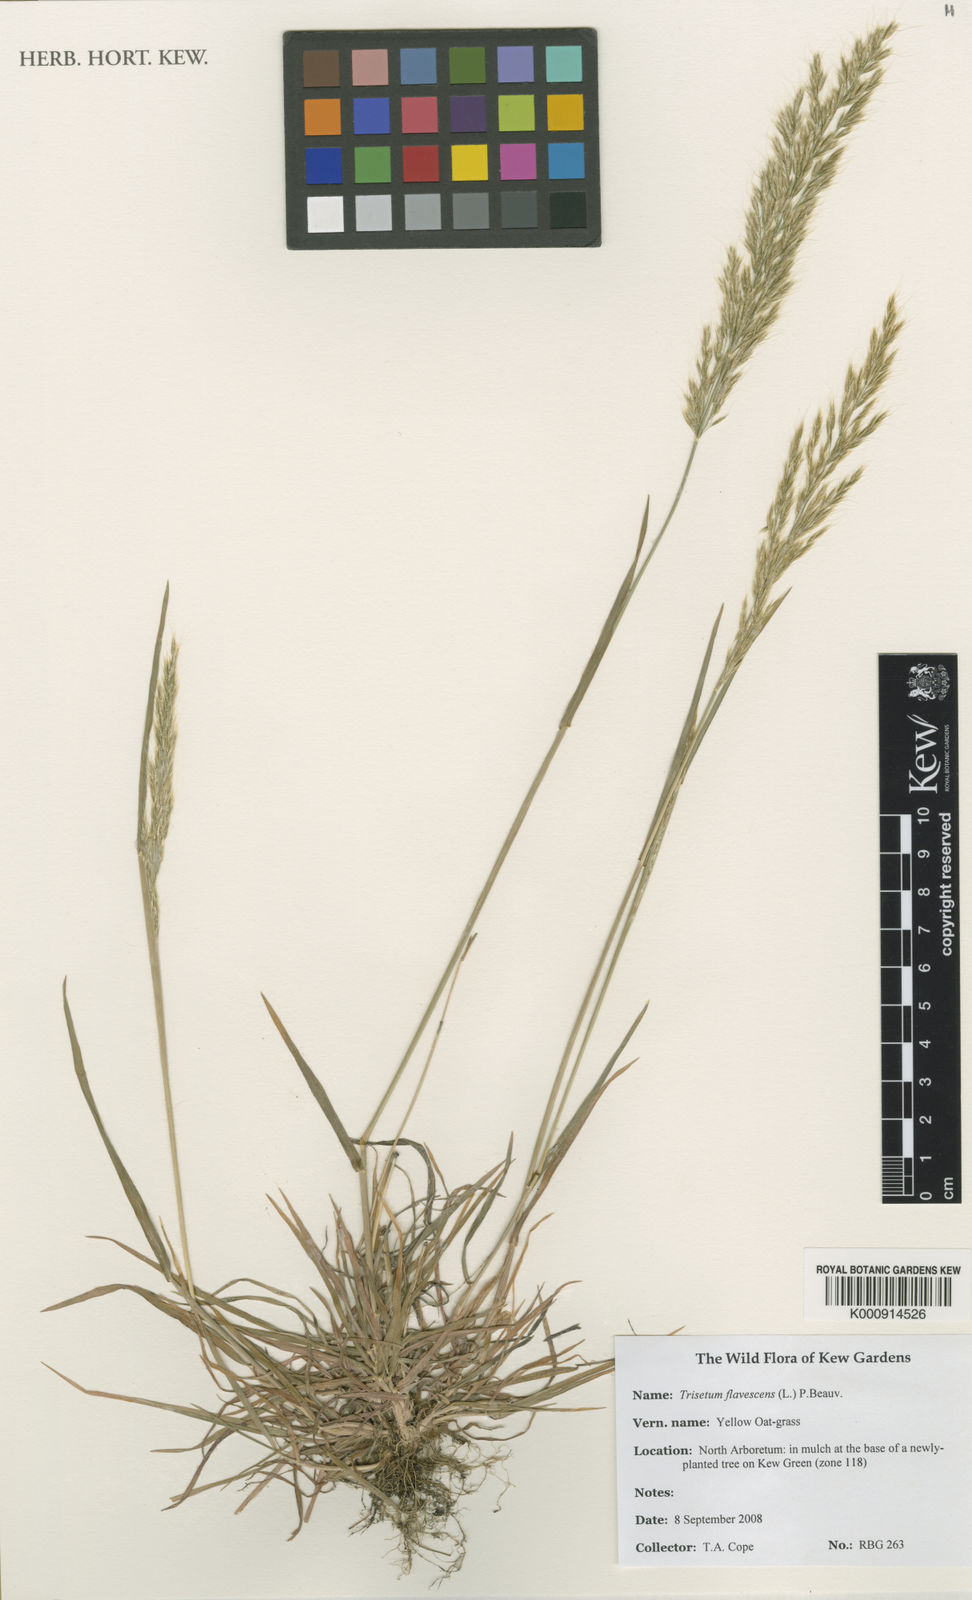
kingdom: Plantae
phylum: Tracheophyta
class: Liliopsida
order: Poales
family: Poaceae
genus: Trisetum
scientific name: Trisetum flavescens
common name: Yellow oat-grass
